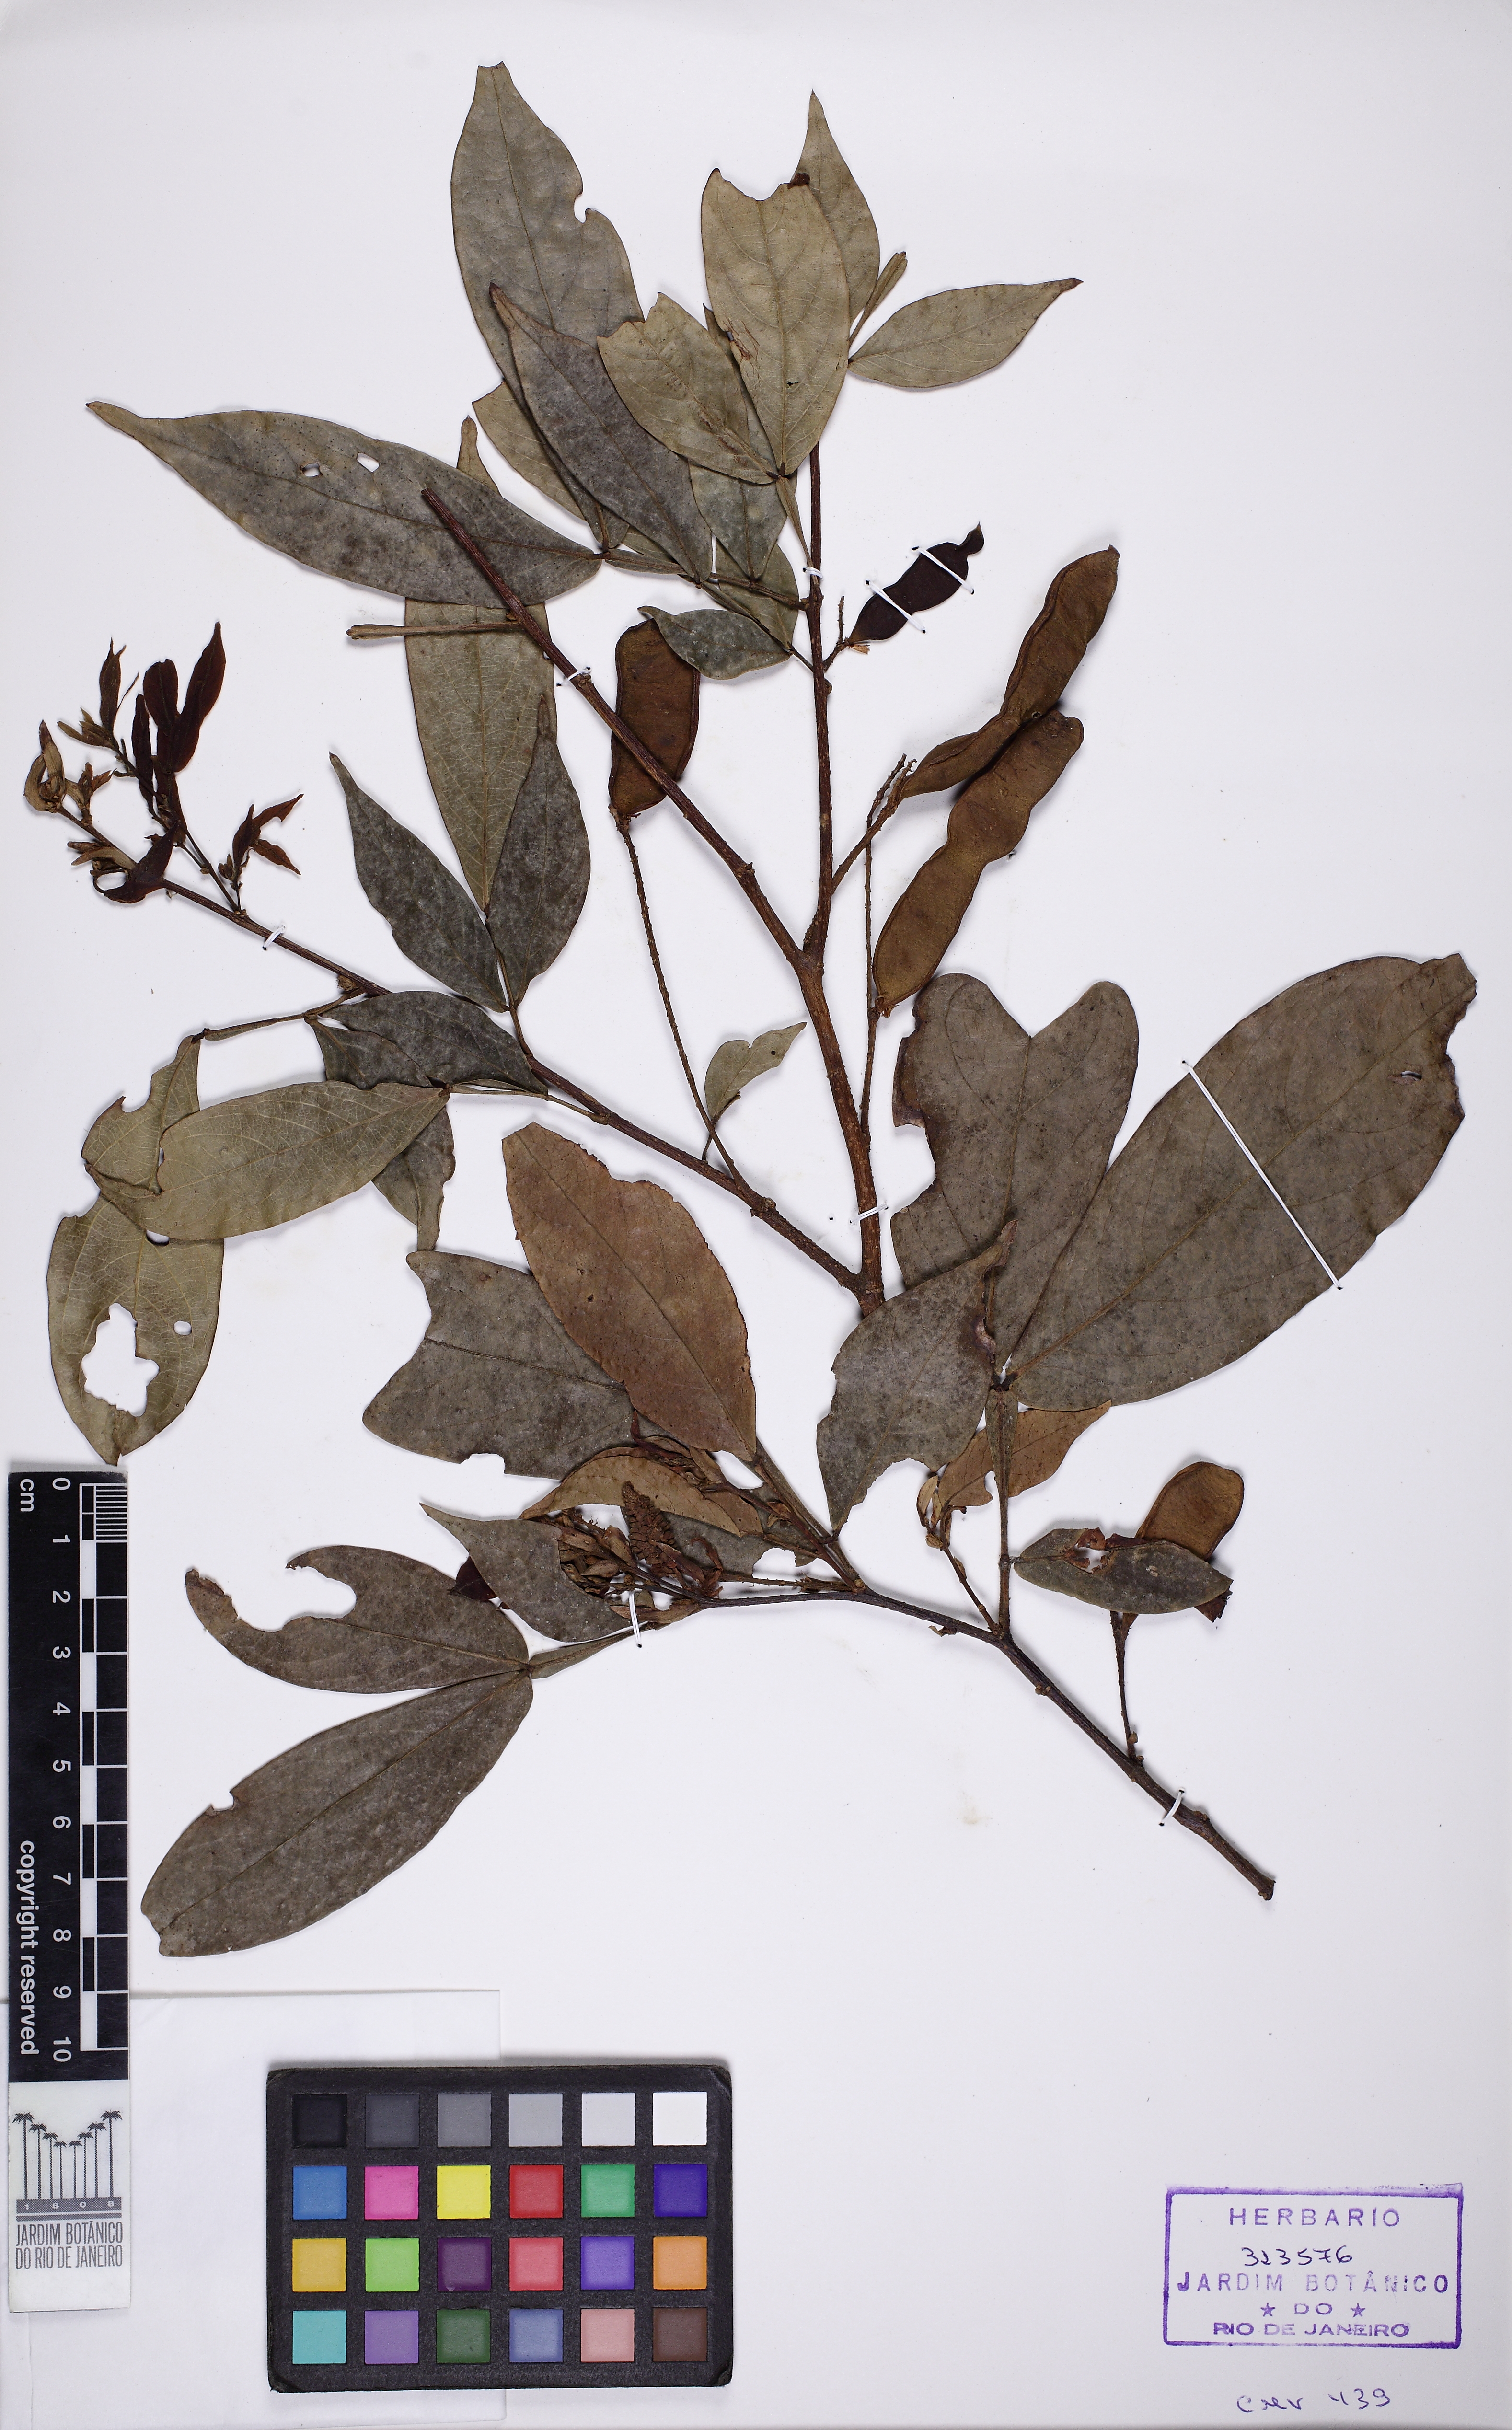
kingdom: Plantae
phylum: Tracheophyta
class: Magnoliopsida
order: Fabales
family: Fabaceae
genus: Inga
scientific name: Inga marginata
